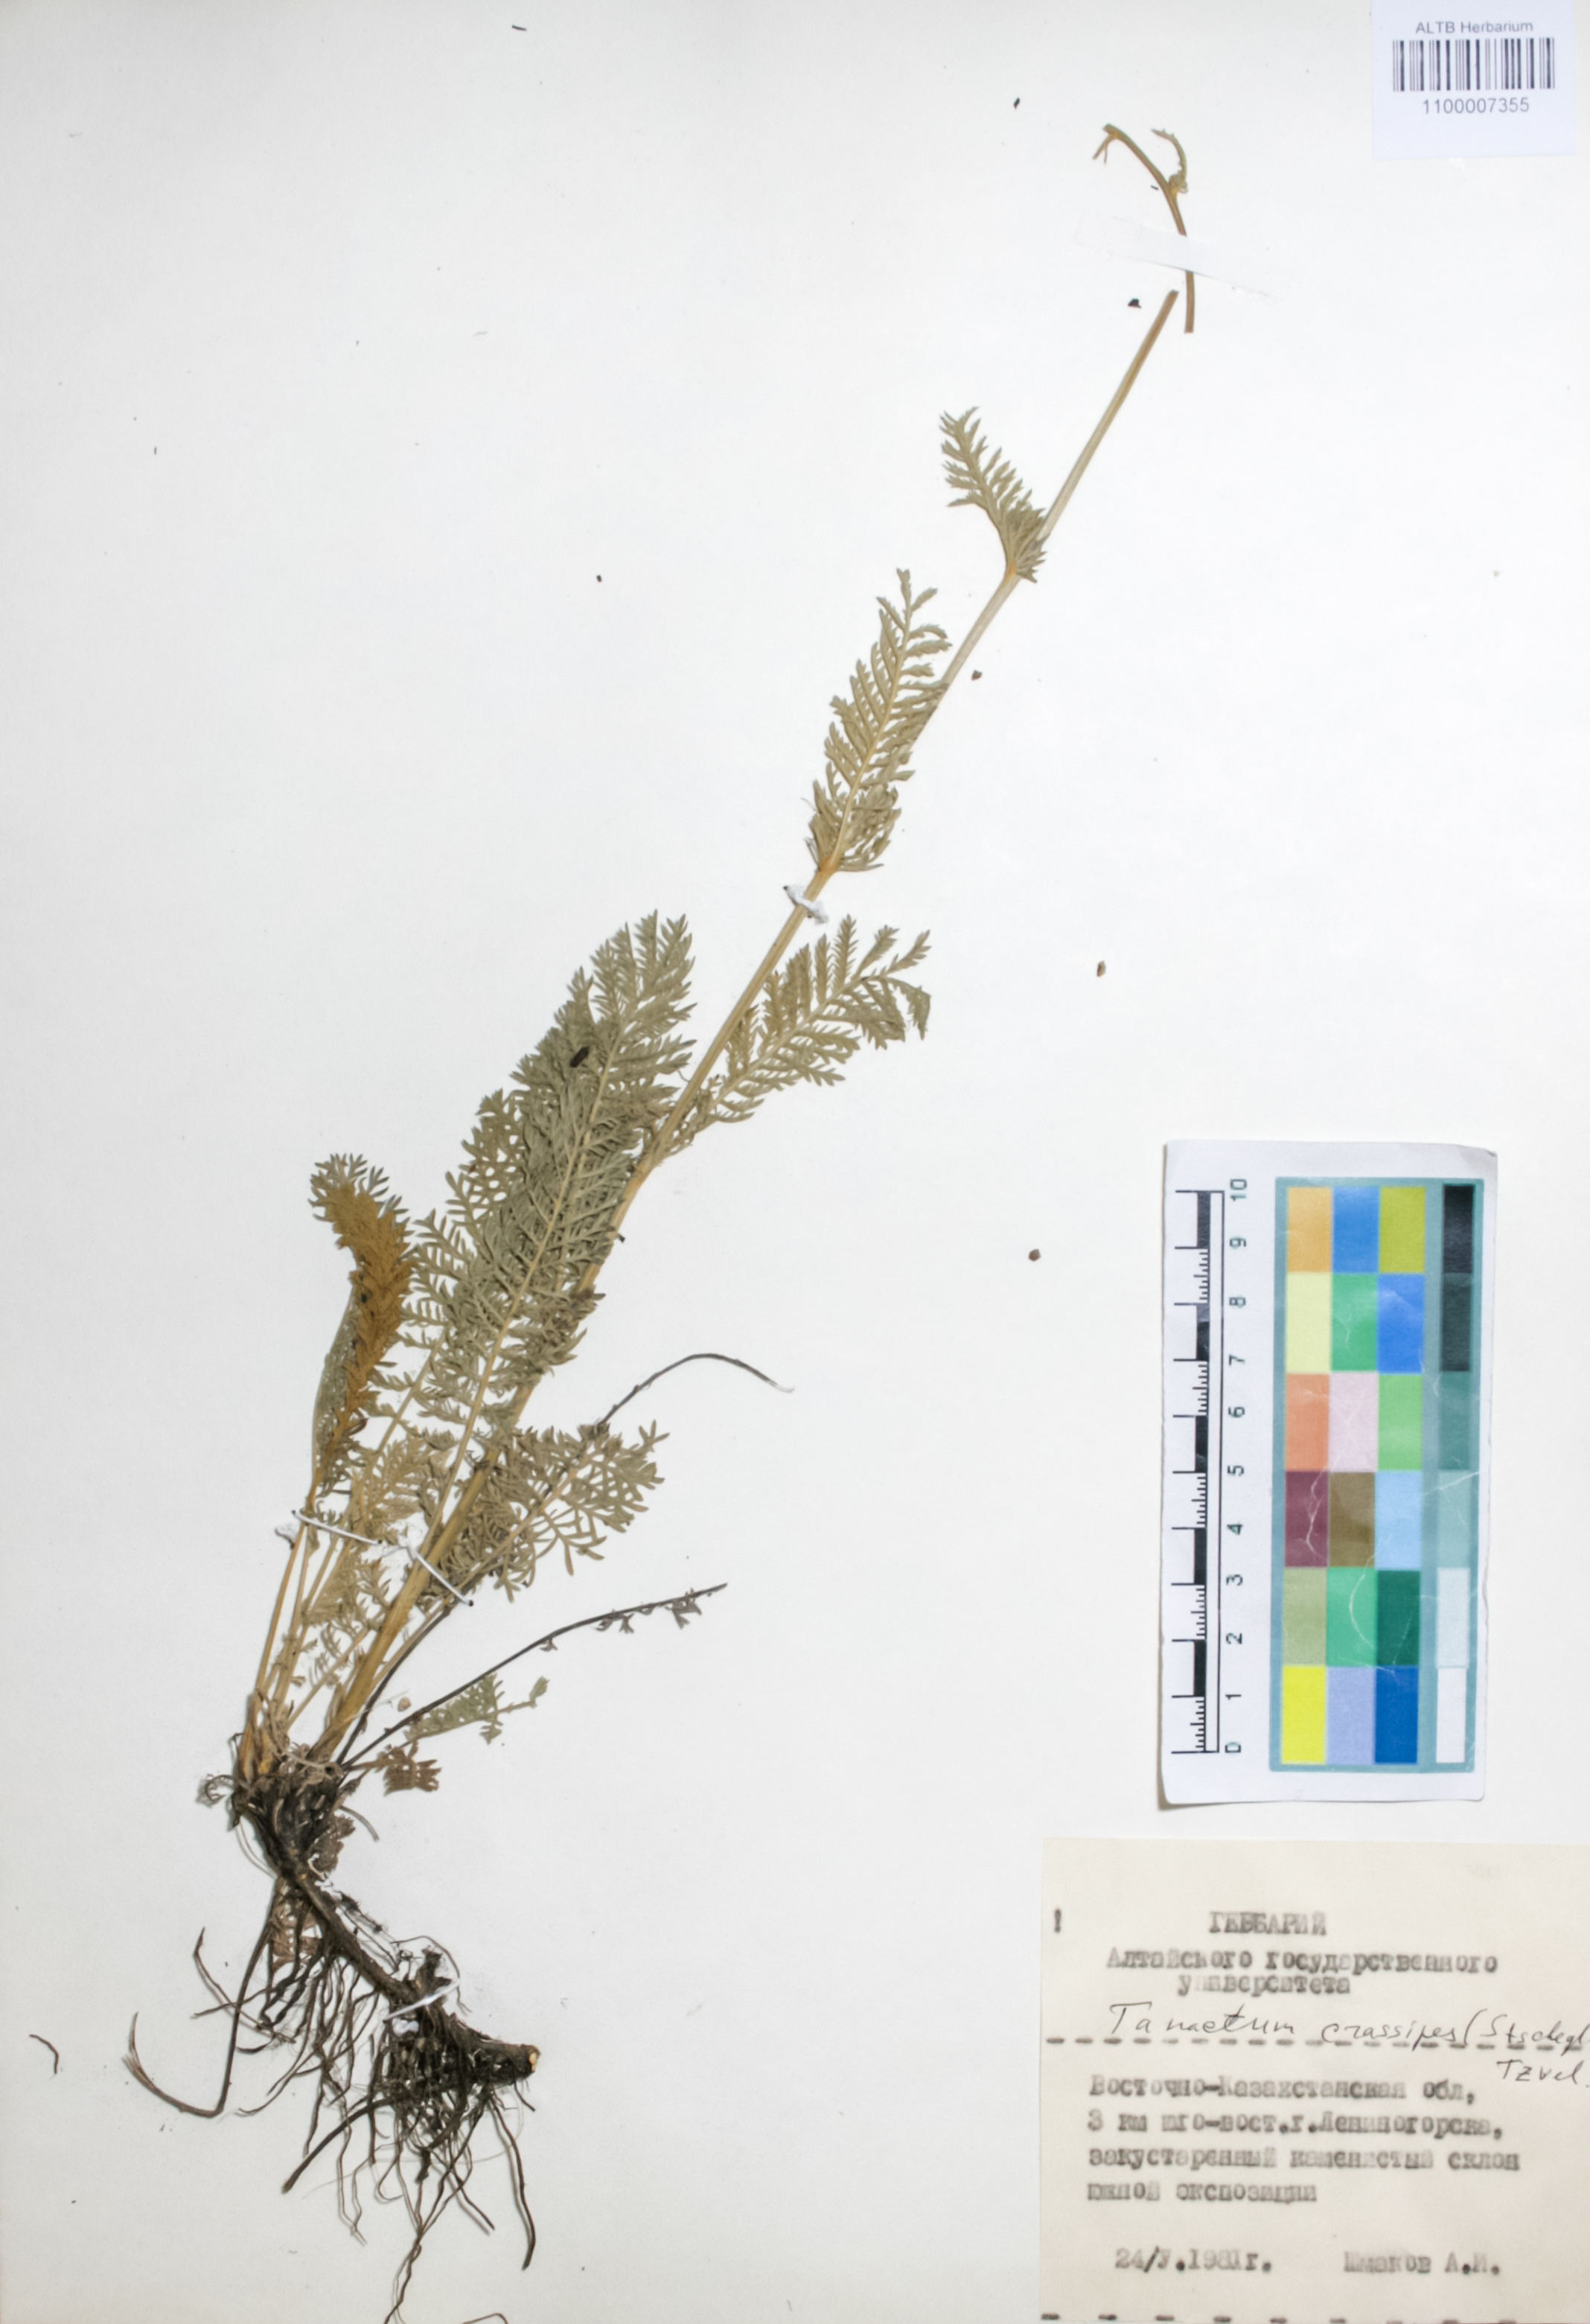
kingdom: Plantae
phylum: Tracheophyta
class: Magnoliopsida
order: Asterales
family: Asteraceae
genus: Tanacetum
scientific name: Tanacetum crassipes
